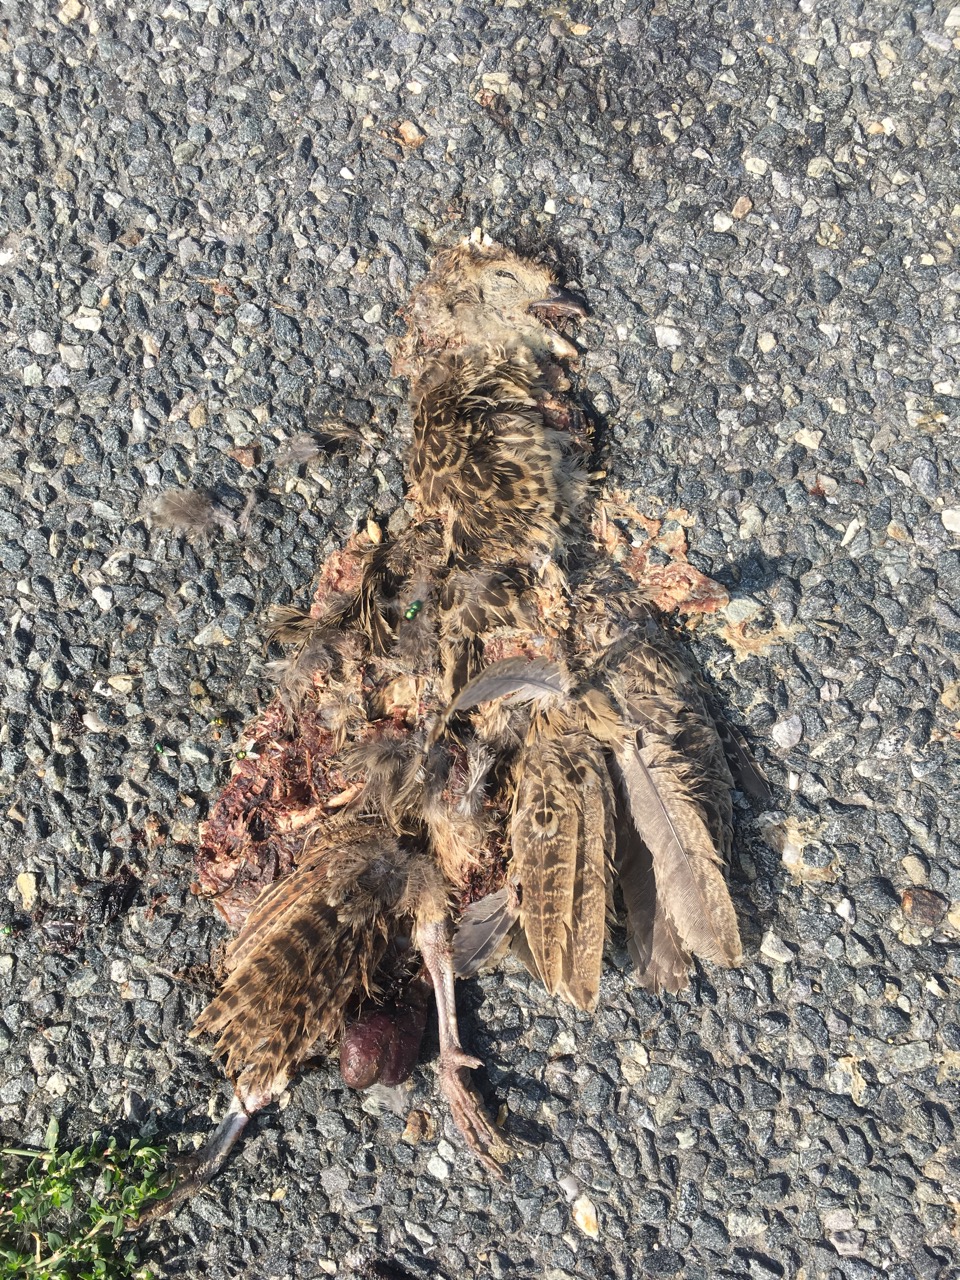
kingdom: Animalia
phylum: Chordata
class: Aves
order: Galliformes
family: Phasianidae
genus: Phasianus
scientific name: Phasianus colchicus
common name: Common pheasant
